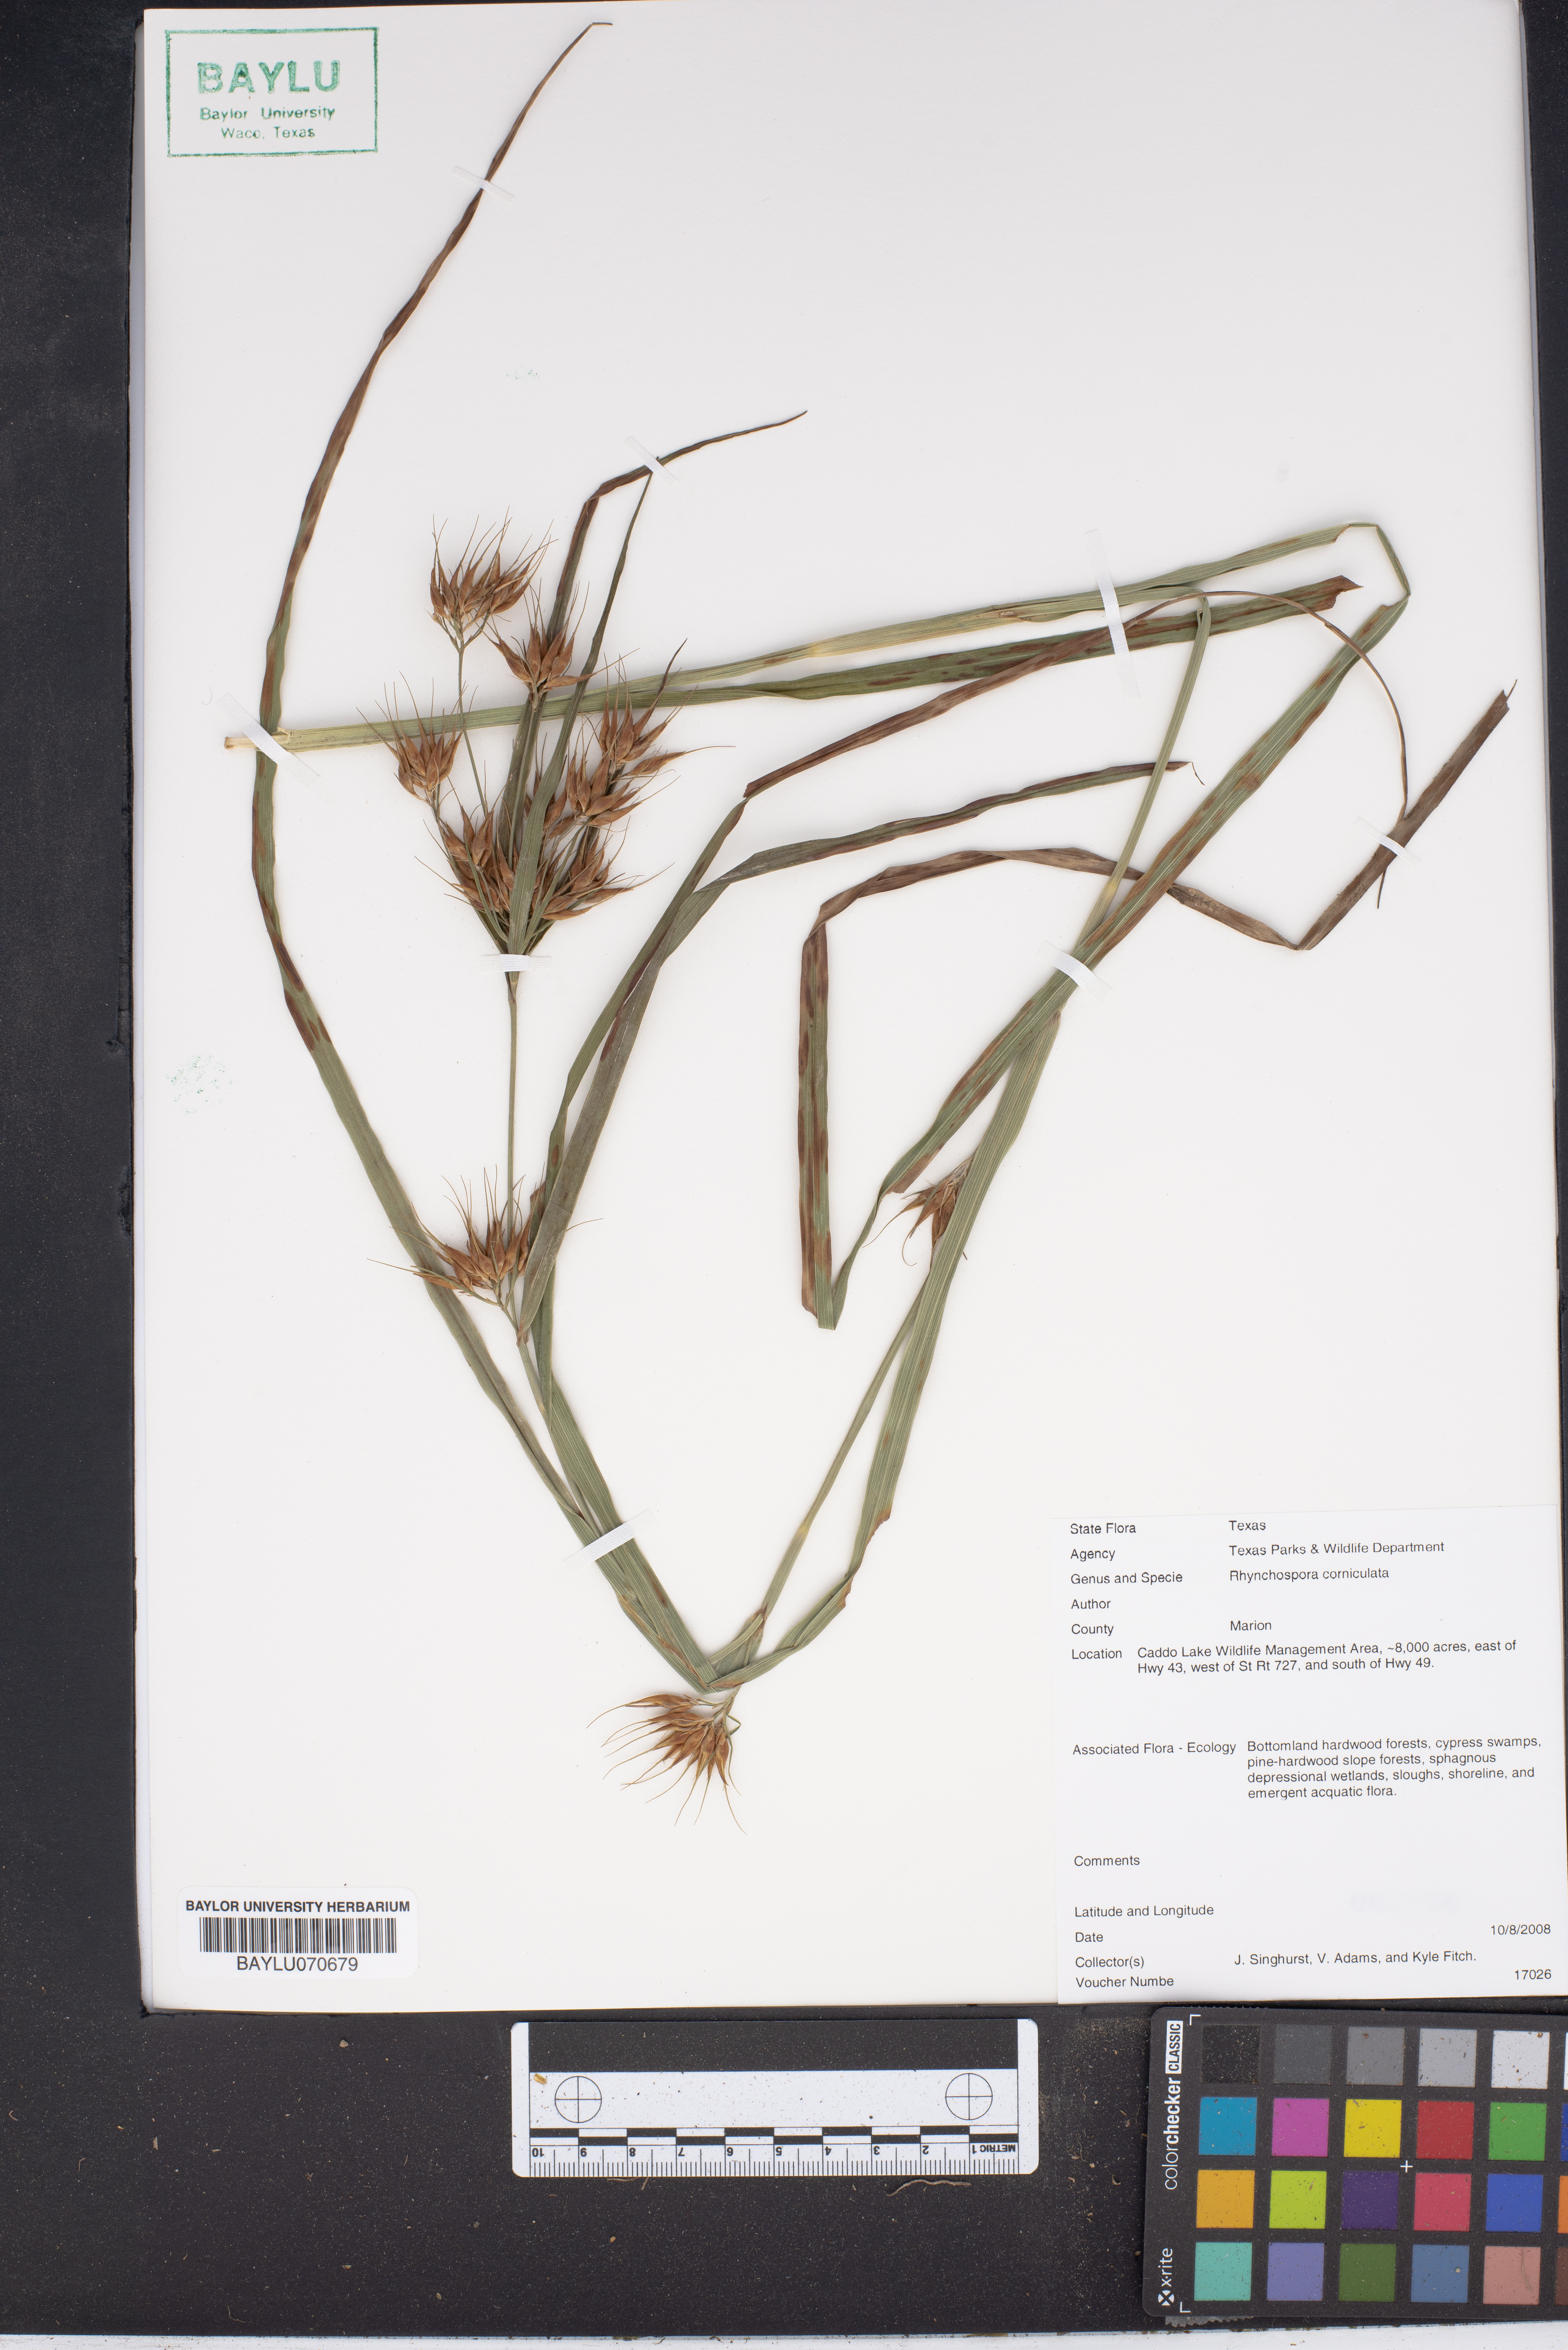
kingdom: Plantae
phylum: Tracheophyta
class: Liliopsida
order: Poales
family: Cyperaceae
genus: Rhynchospora
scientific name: Rhynchospora corniculata
